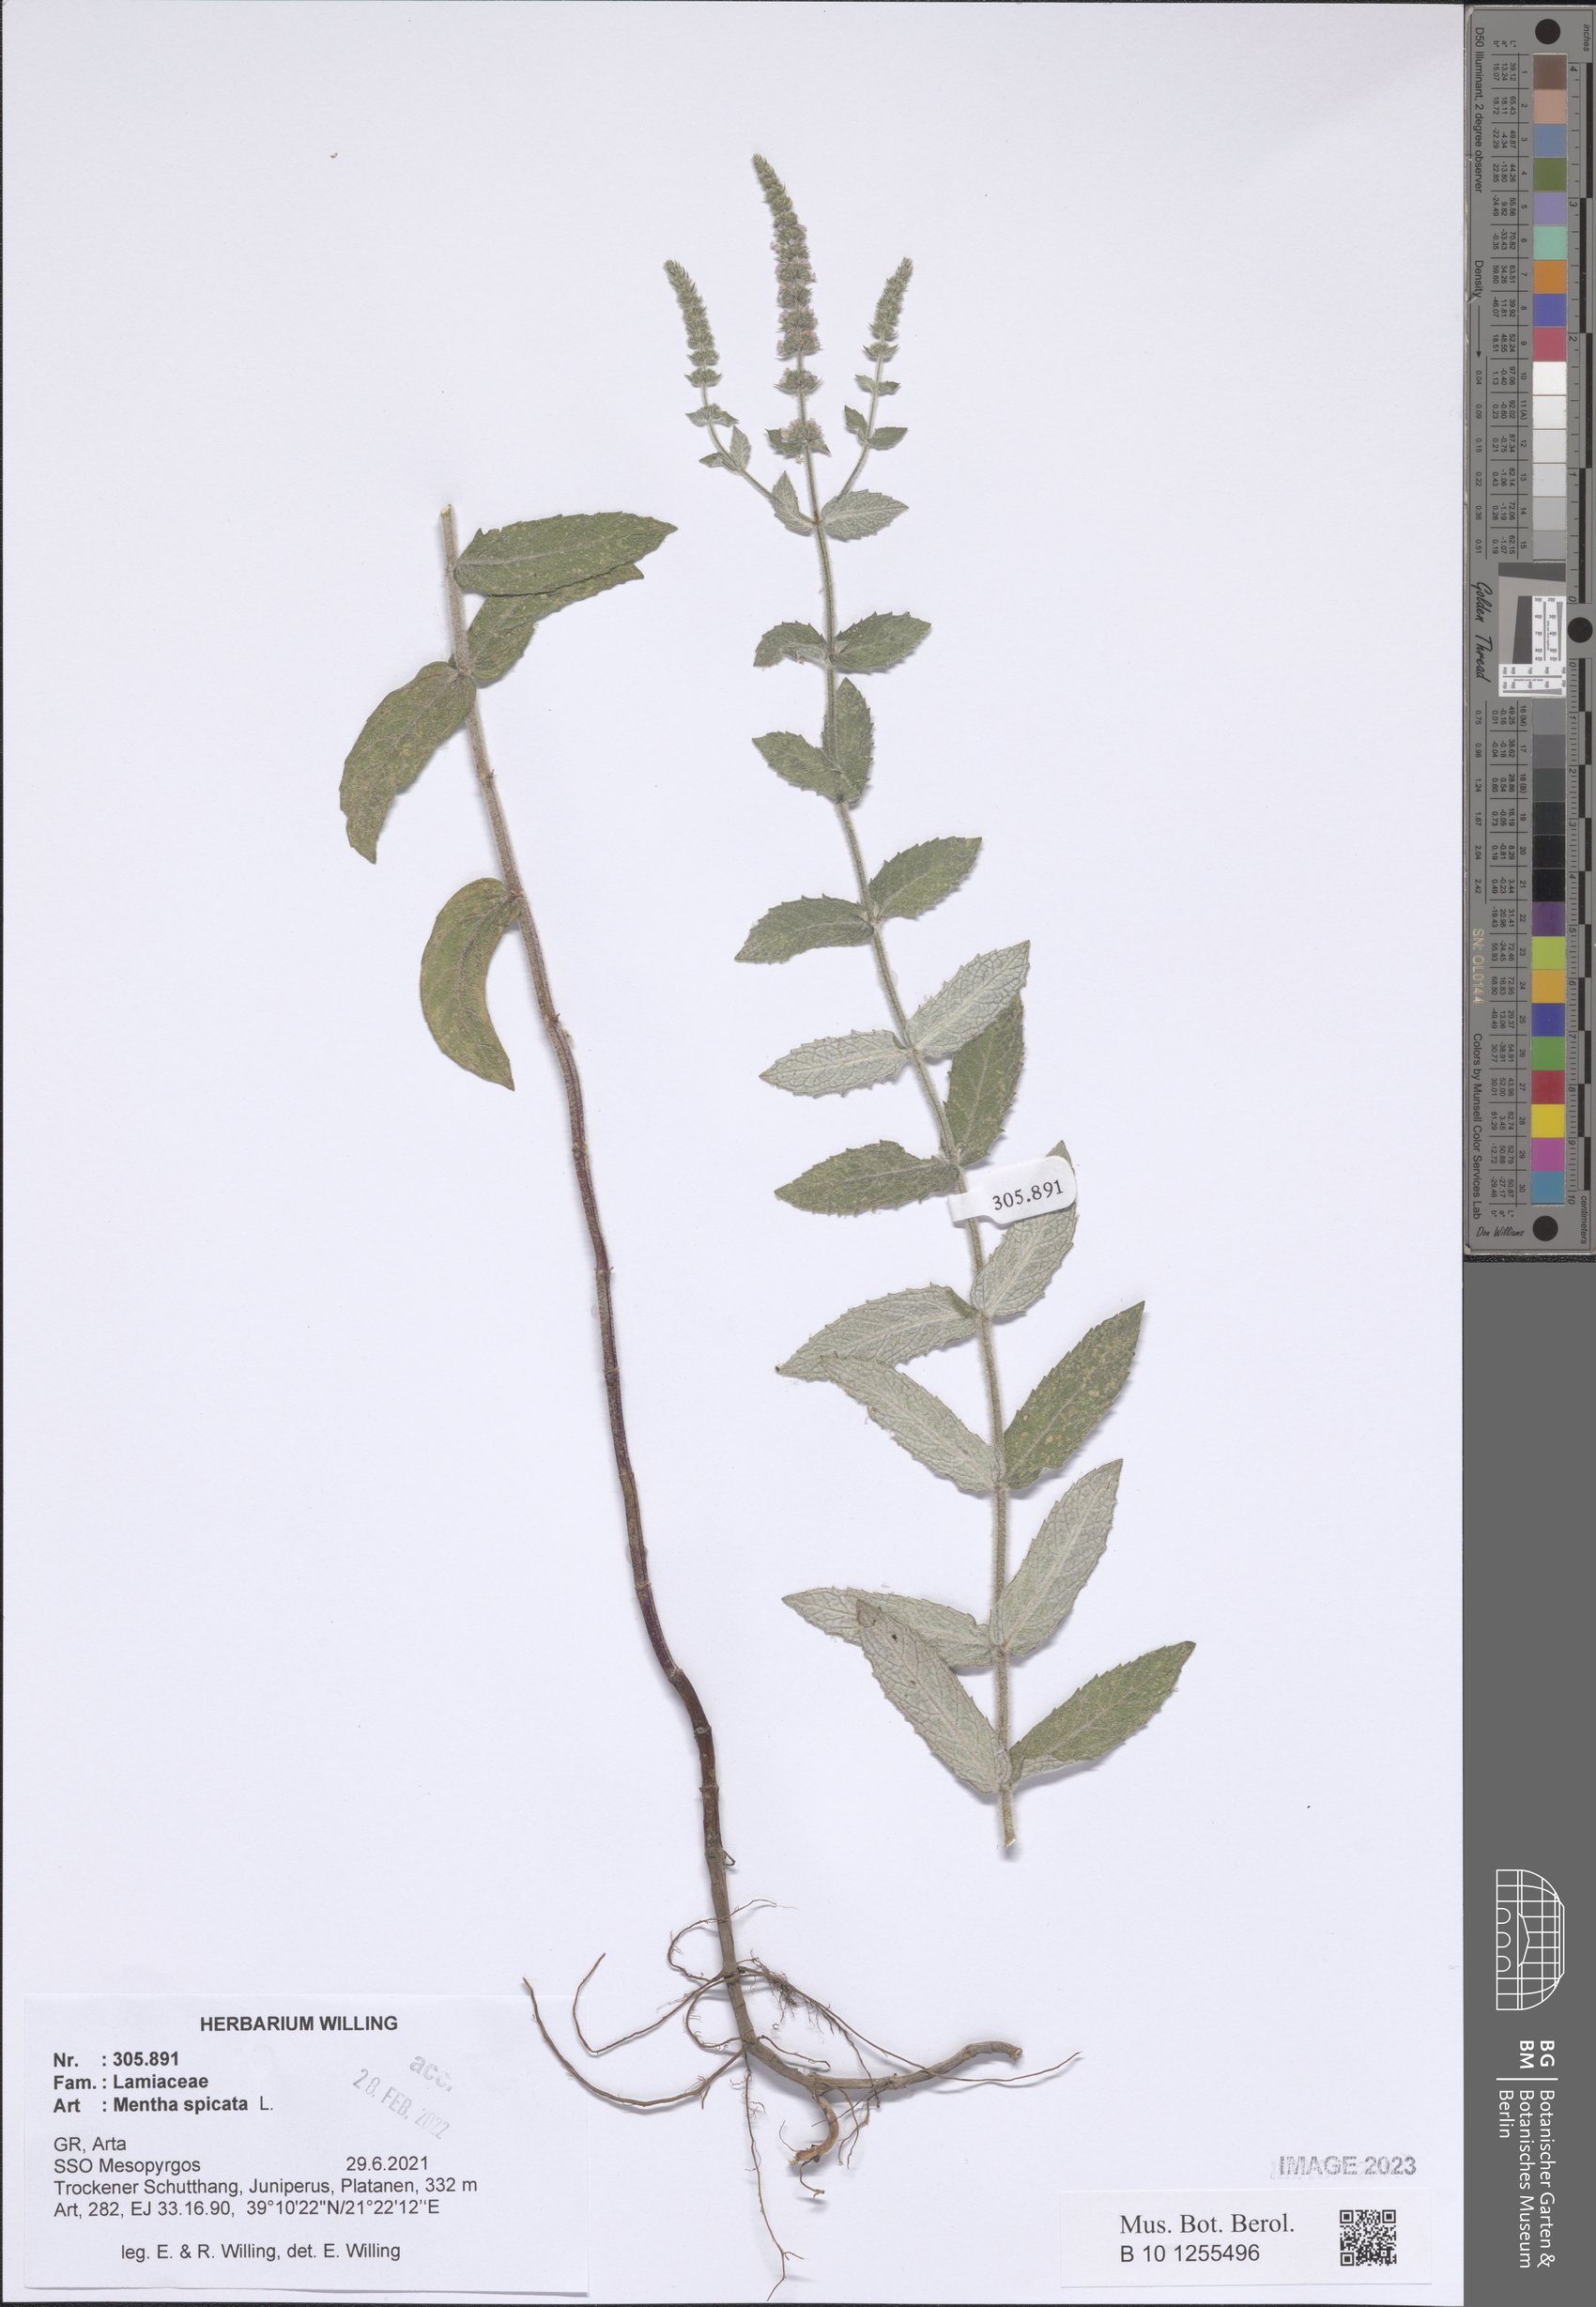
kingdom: Plantae
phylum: Tracheophyta
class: Magnoliopsida
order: Lamiales
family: Lamiaceae
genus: Mentha
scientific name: Mentha spicata
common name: Spearmint
